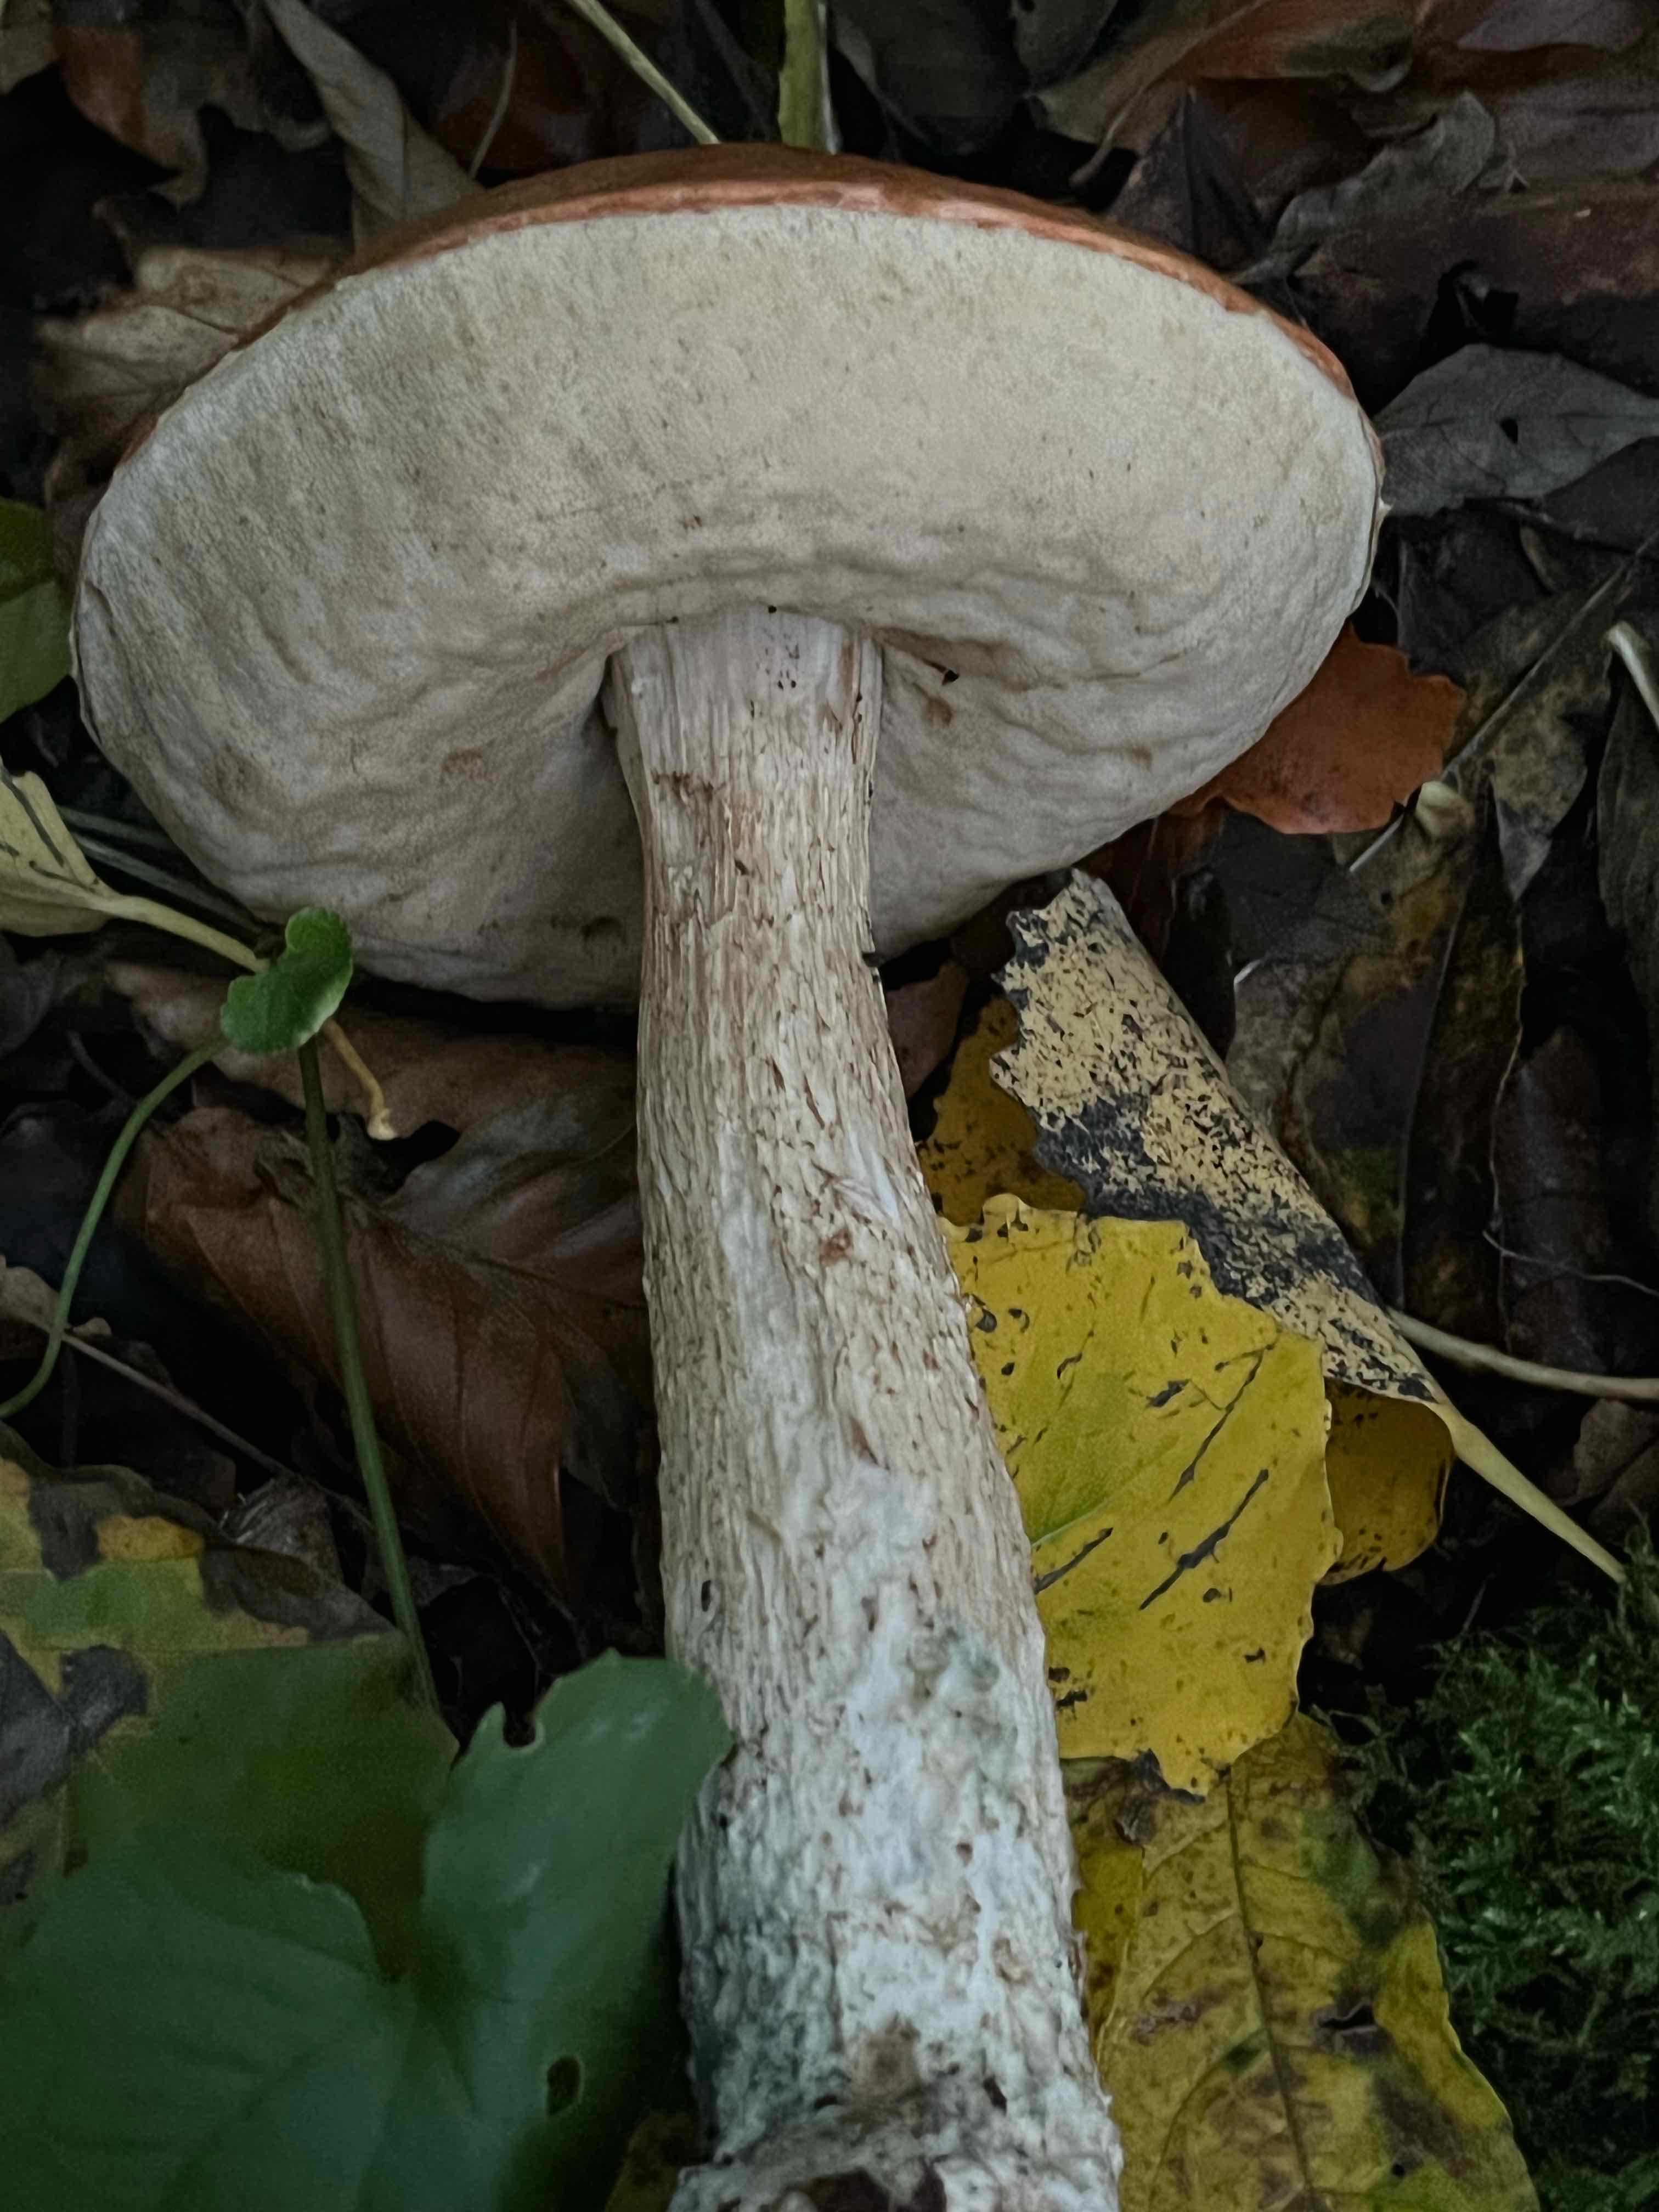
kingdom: Fungi
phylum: Basidiomycota
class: Agaricomycetes
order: Boletales
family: Boletaceae
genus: Leccinum
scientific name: Leccinum albostipitatum
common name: aspe-skælrørhat
